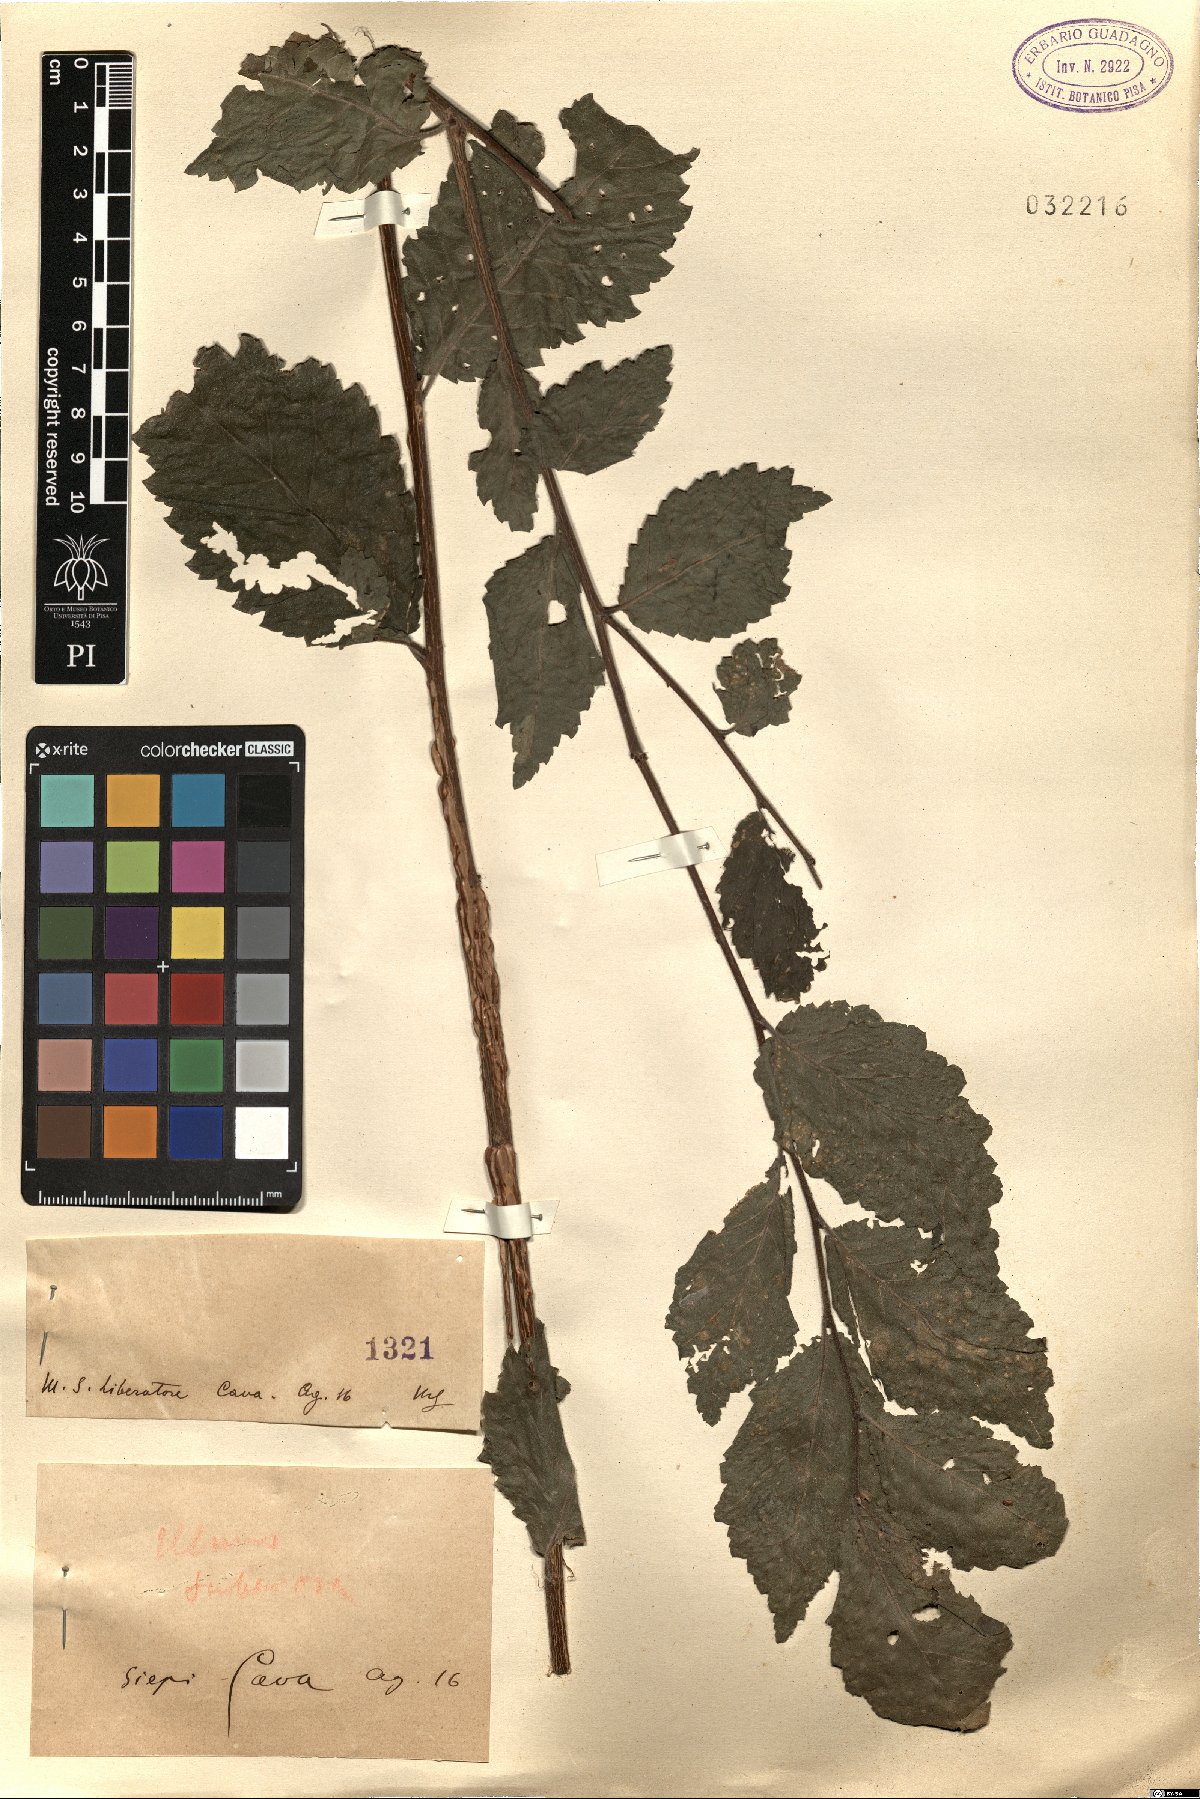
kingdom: Plantae
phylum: Tracheophyta
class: Magnoliopsida
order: Rosales
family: Ulmaceae
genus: Ulmus
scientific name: Ulmus minor
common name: Small-leaved elm
